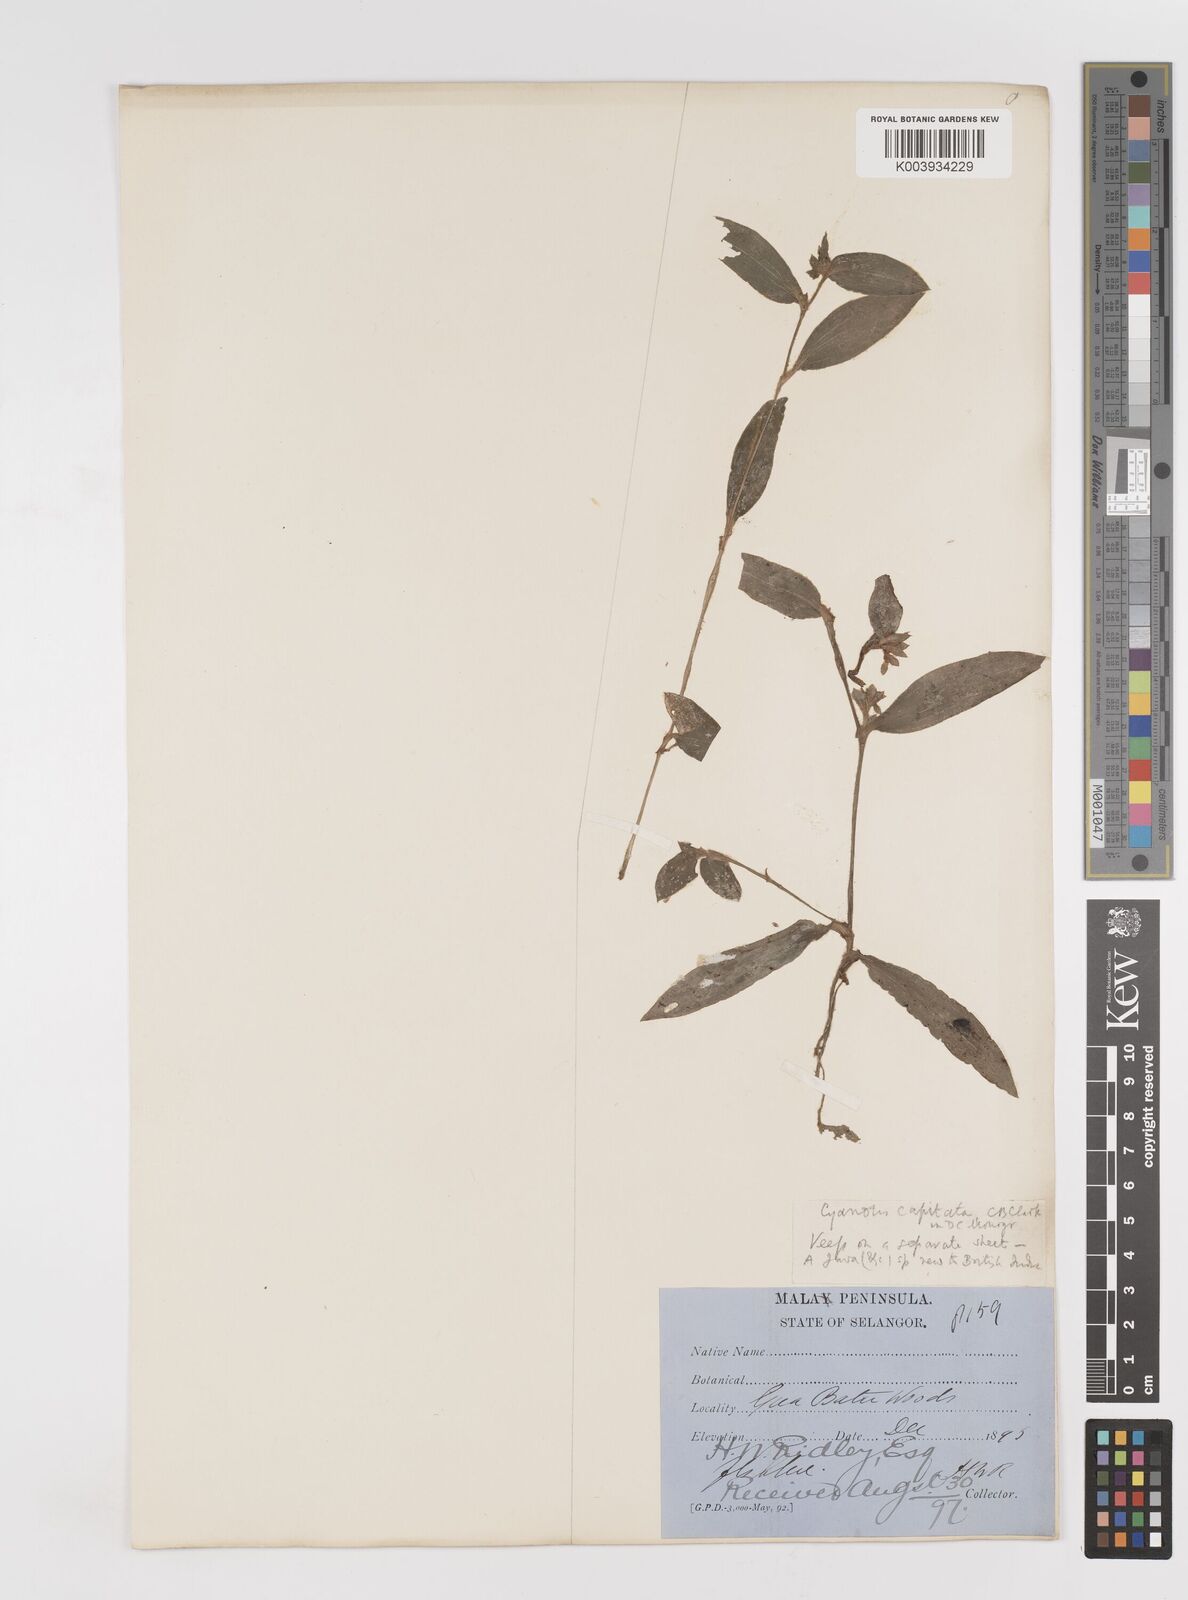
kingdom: Plantae
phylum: Tracheophyta
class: Liliopsida
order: Commelinales
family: Commelinaceae
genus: Cyanotis
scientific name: Cyanotis ciliata
